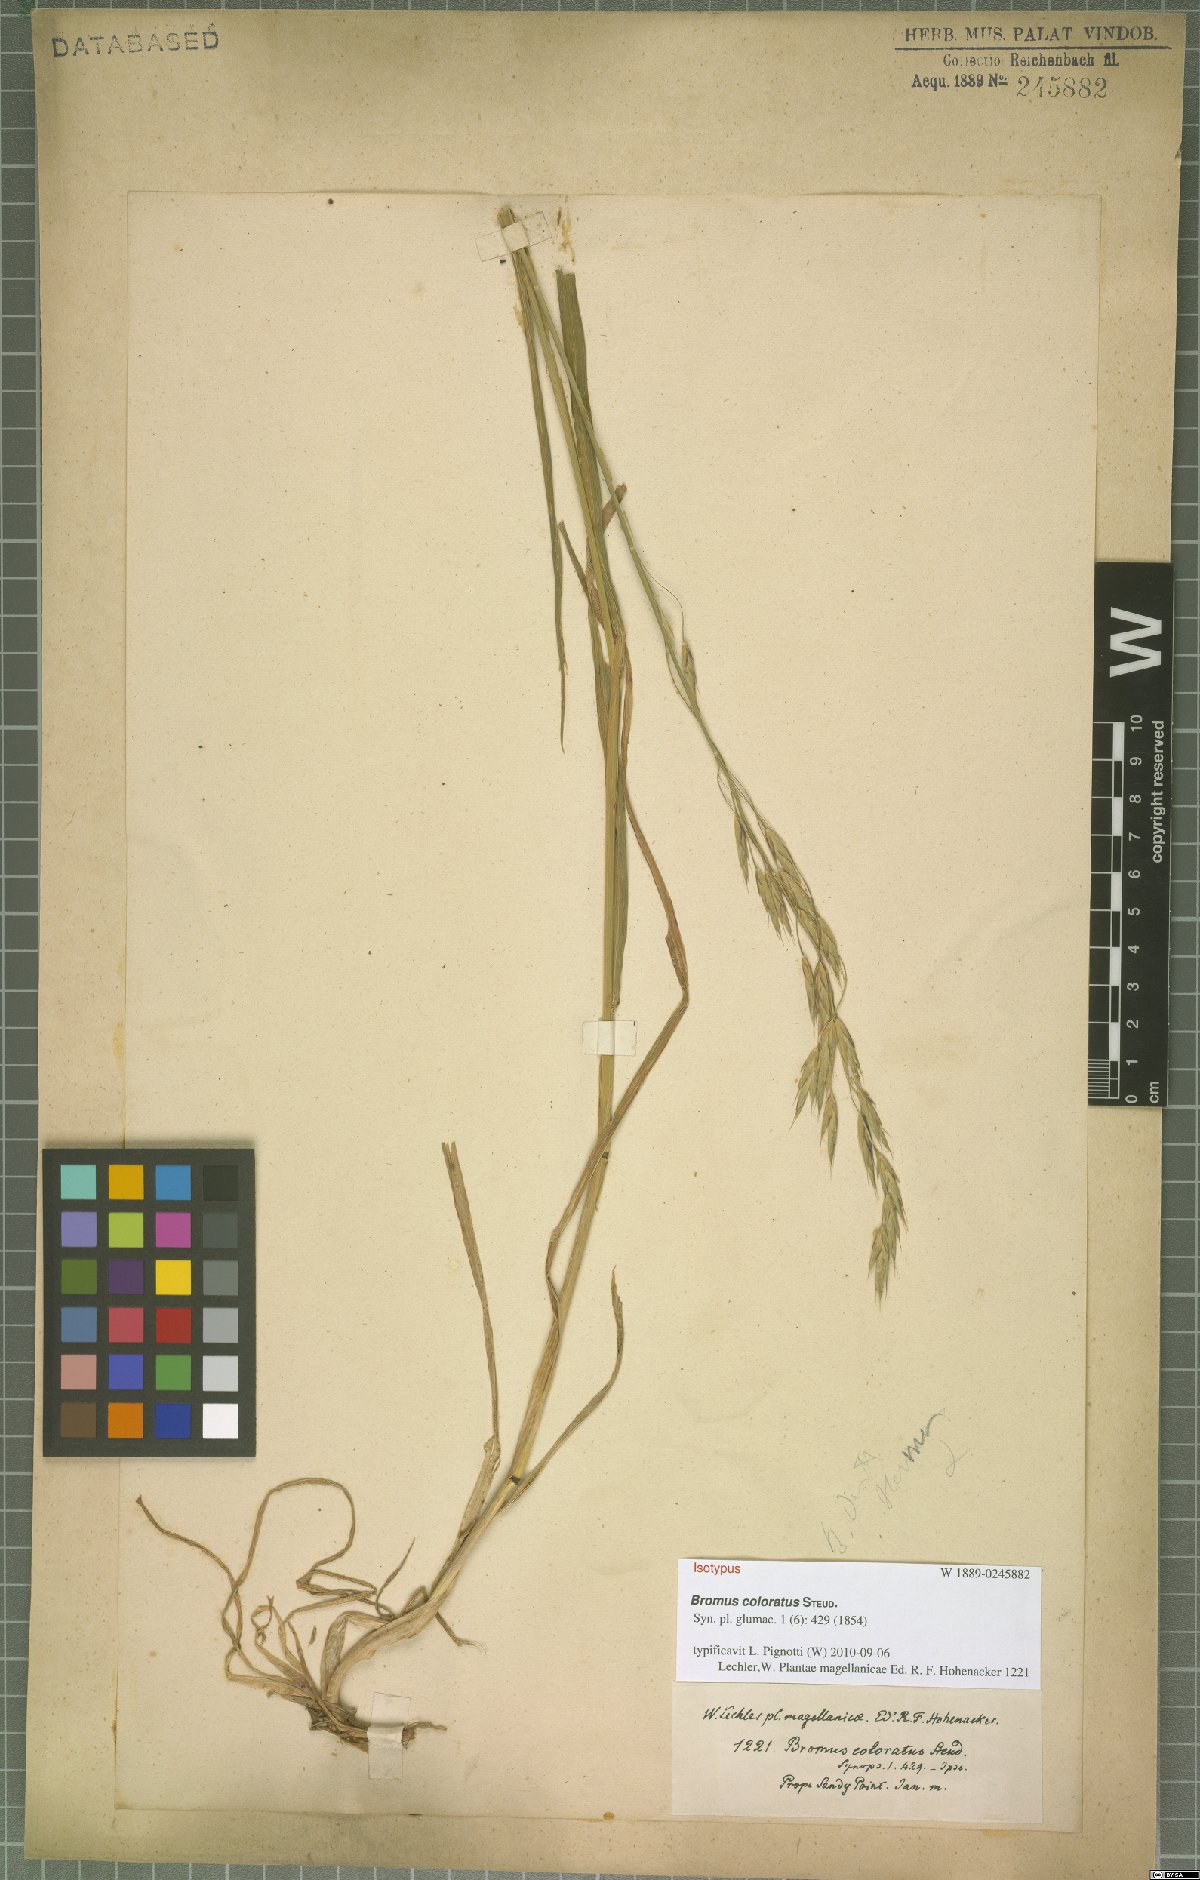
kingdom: Plantae
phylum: Tracheophyta
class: Liliopsida
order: Poales
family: Poaceae
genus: Bromus
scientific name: Bromus coloratus
